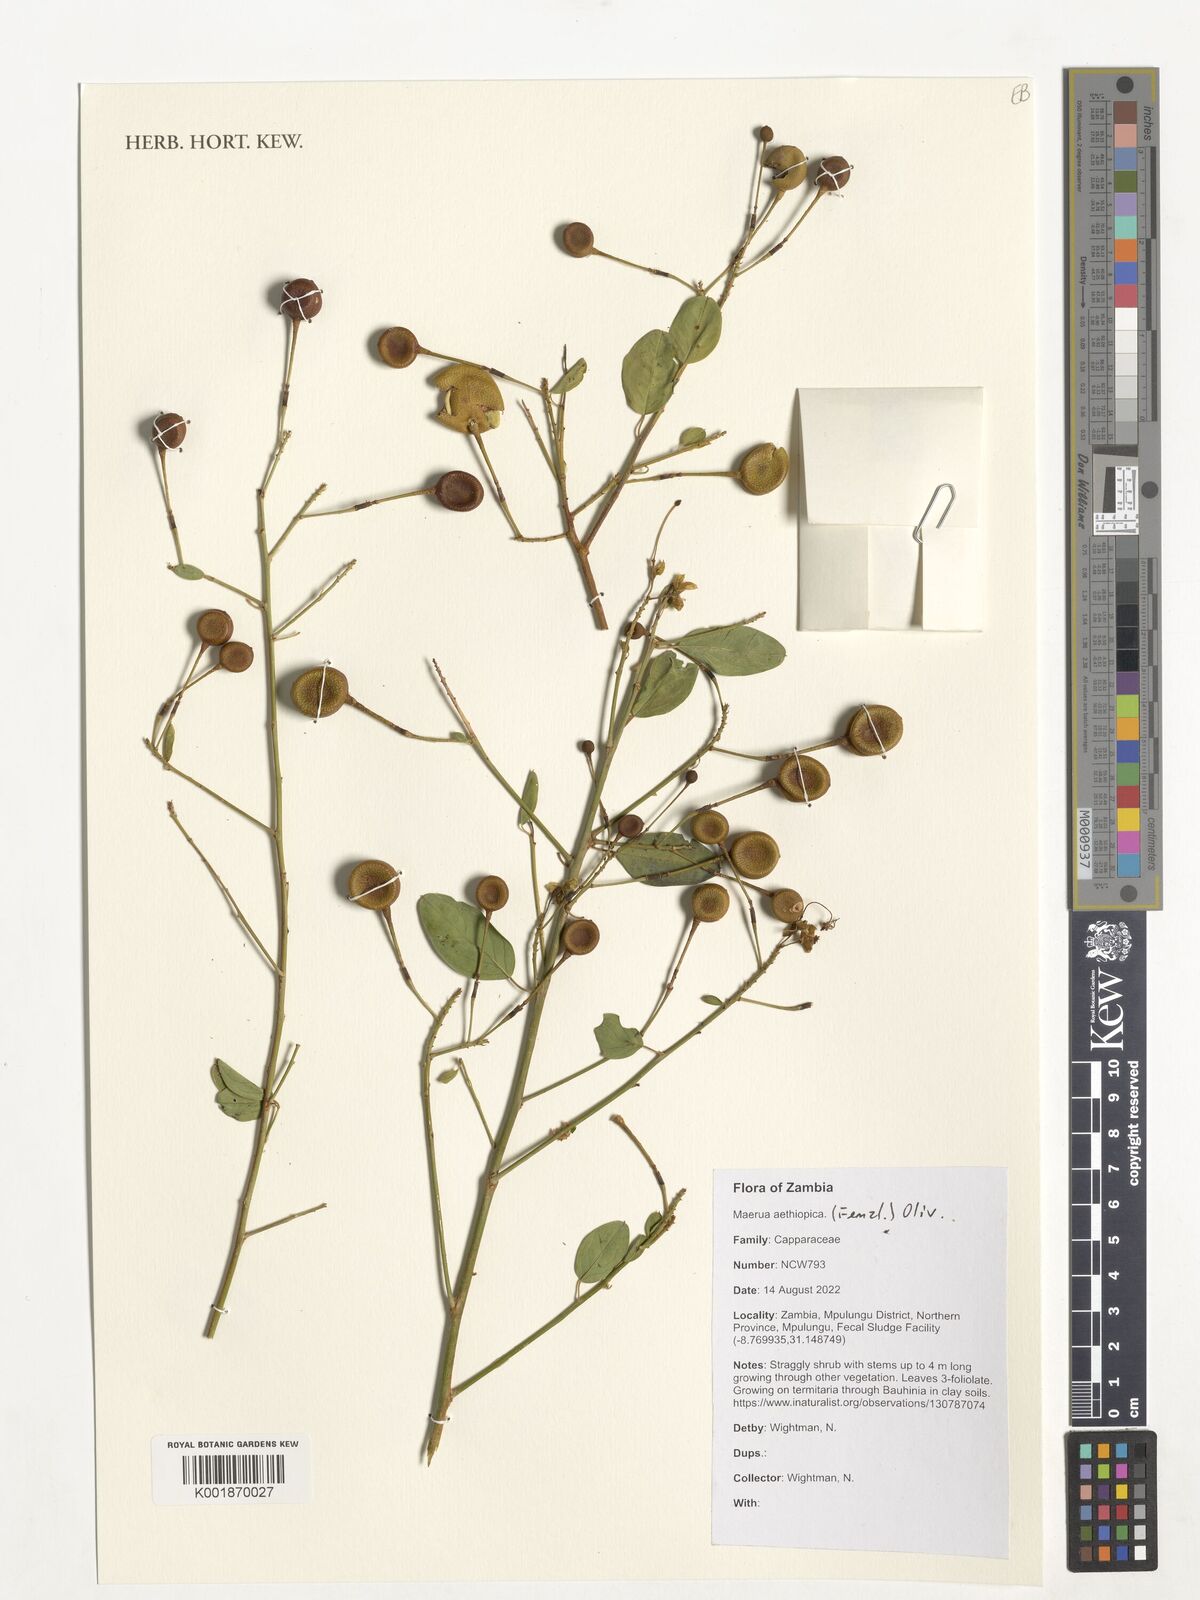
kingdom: Plantae
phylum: Tracheophyta
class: Magnoliopsida
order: Brassicales
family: Capparaceae
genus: Maerua
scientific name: Maerua aethiopica
